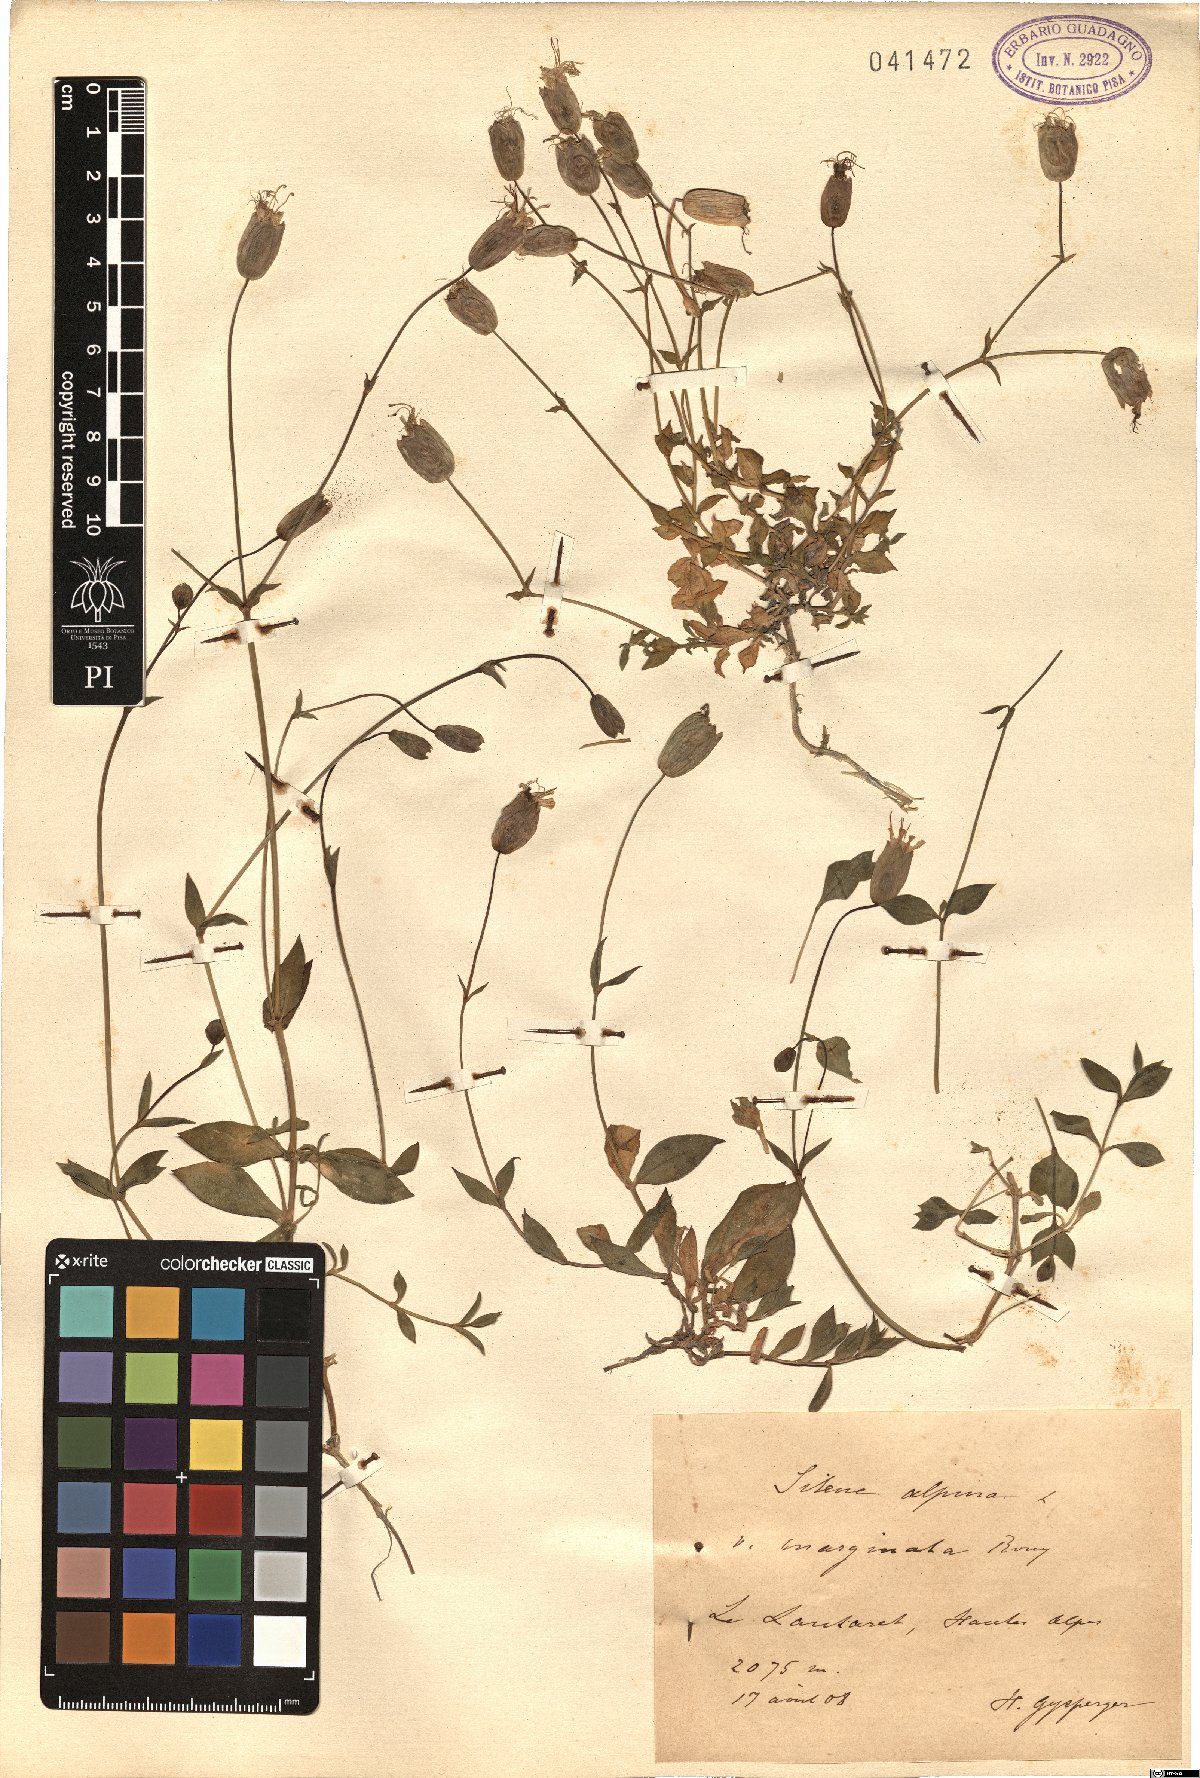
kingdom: Plantae
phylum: Tracheophyta
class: Magnoliopsida
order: Caryophyllales
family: Caryophyllaceae
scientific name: Caryophyllaceae
